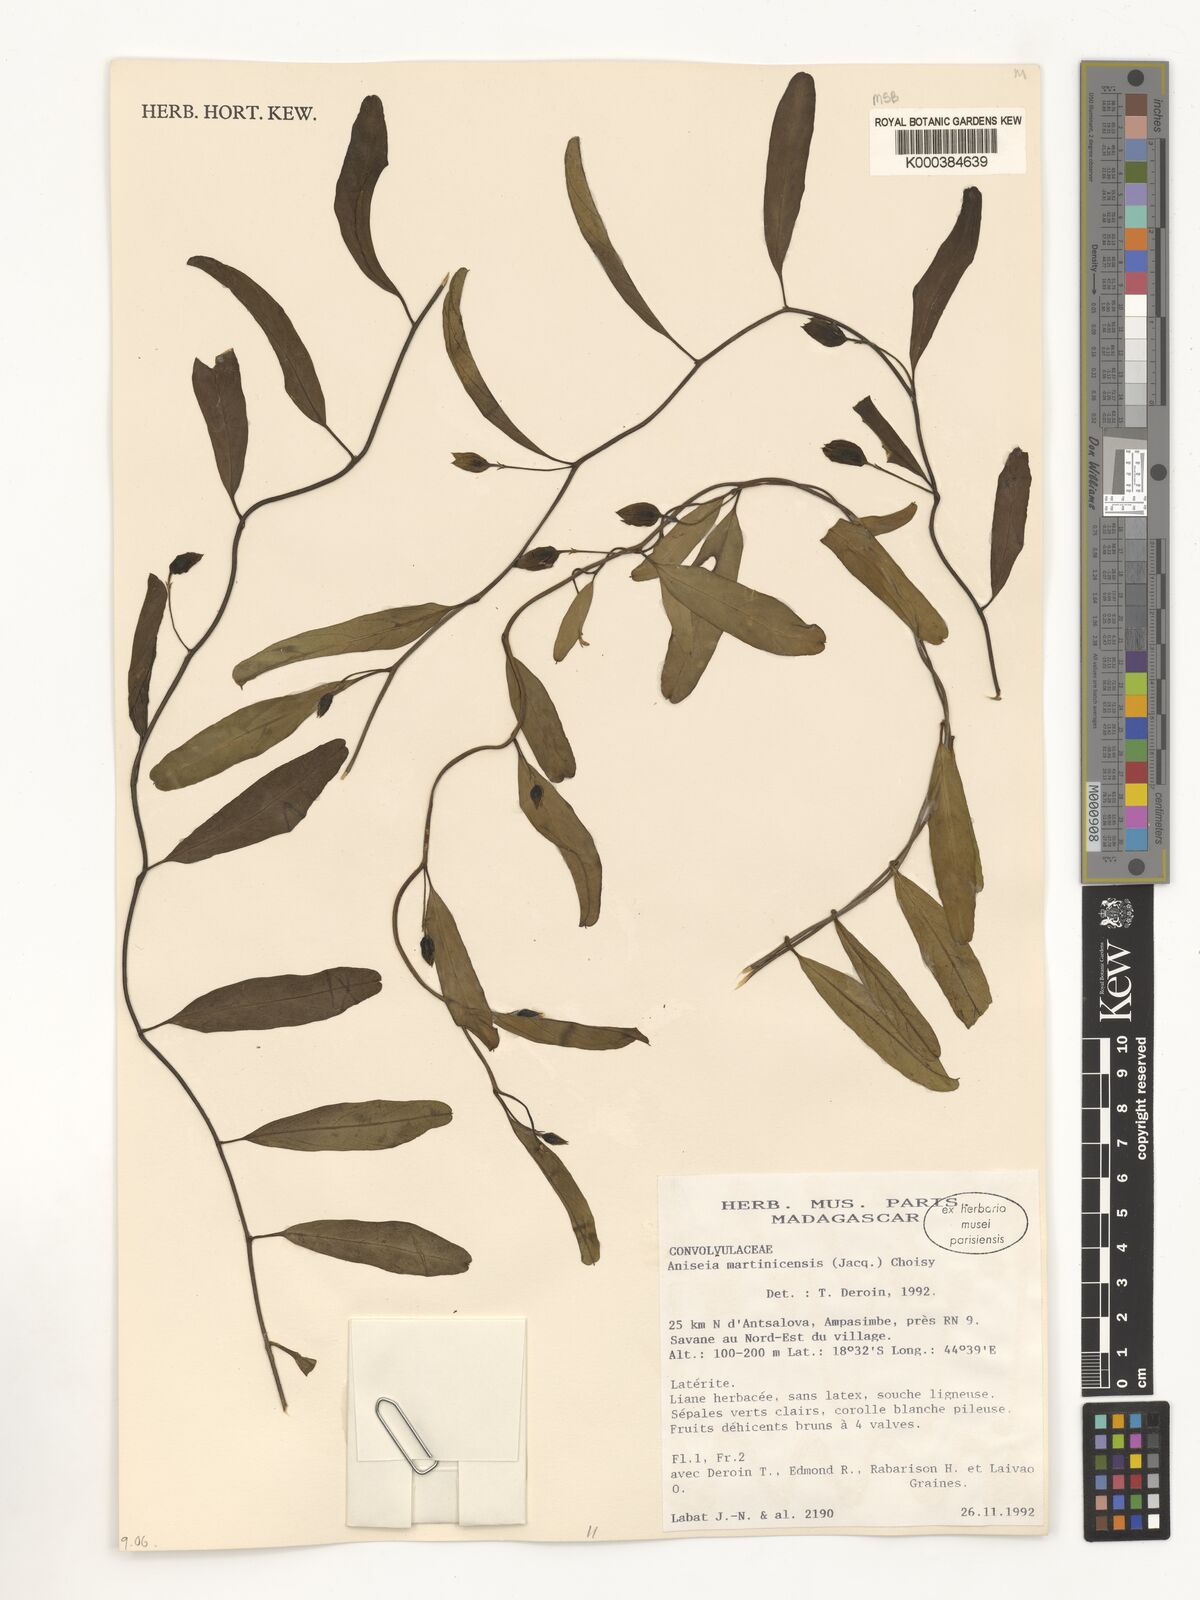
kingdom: Plantae
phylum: Tracheophyta
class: Magnoliopsida
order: Solanales
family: Convolvulaceae
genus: Aniseia
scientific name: Aniseia martinicensis
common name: Kulayadambu
